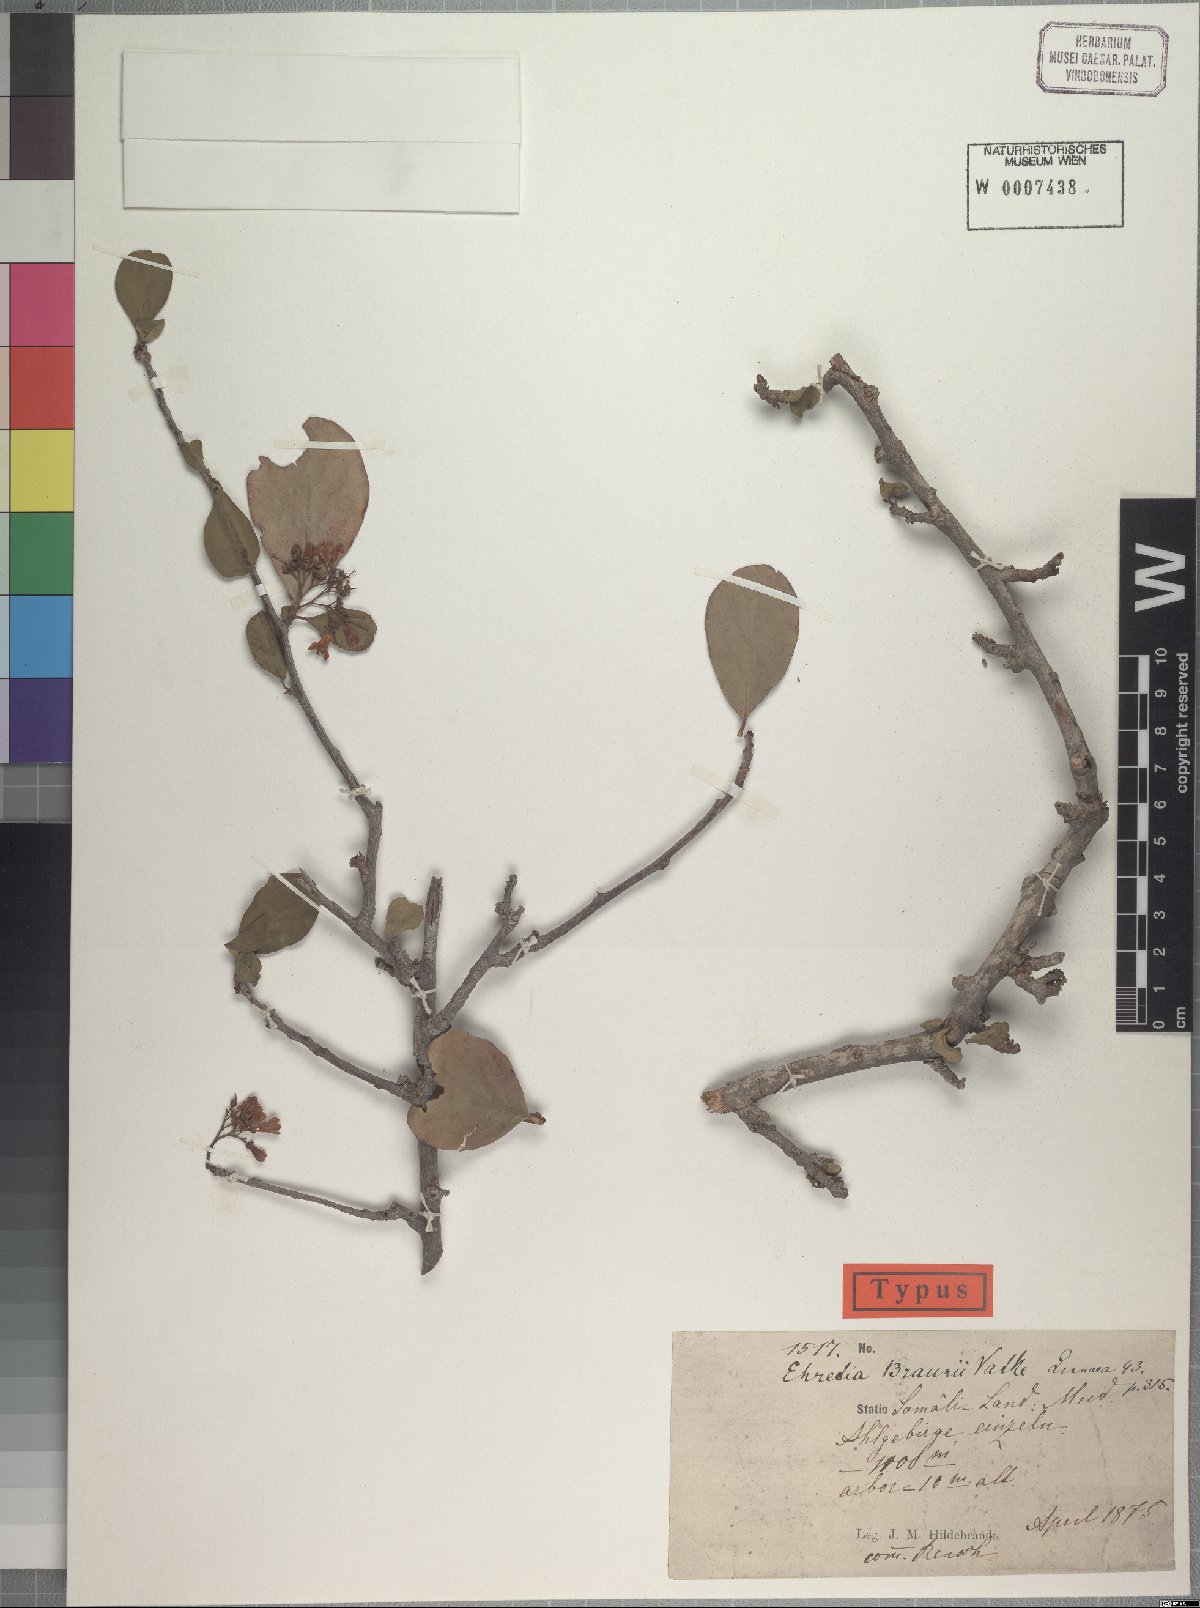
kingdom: Plantae
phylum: Tracheophyta
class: Magnoliopsida
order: Boraginales
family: Ehretiaceae
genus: Ehretia
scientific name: Ehretia obtusifolia
